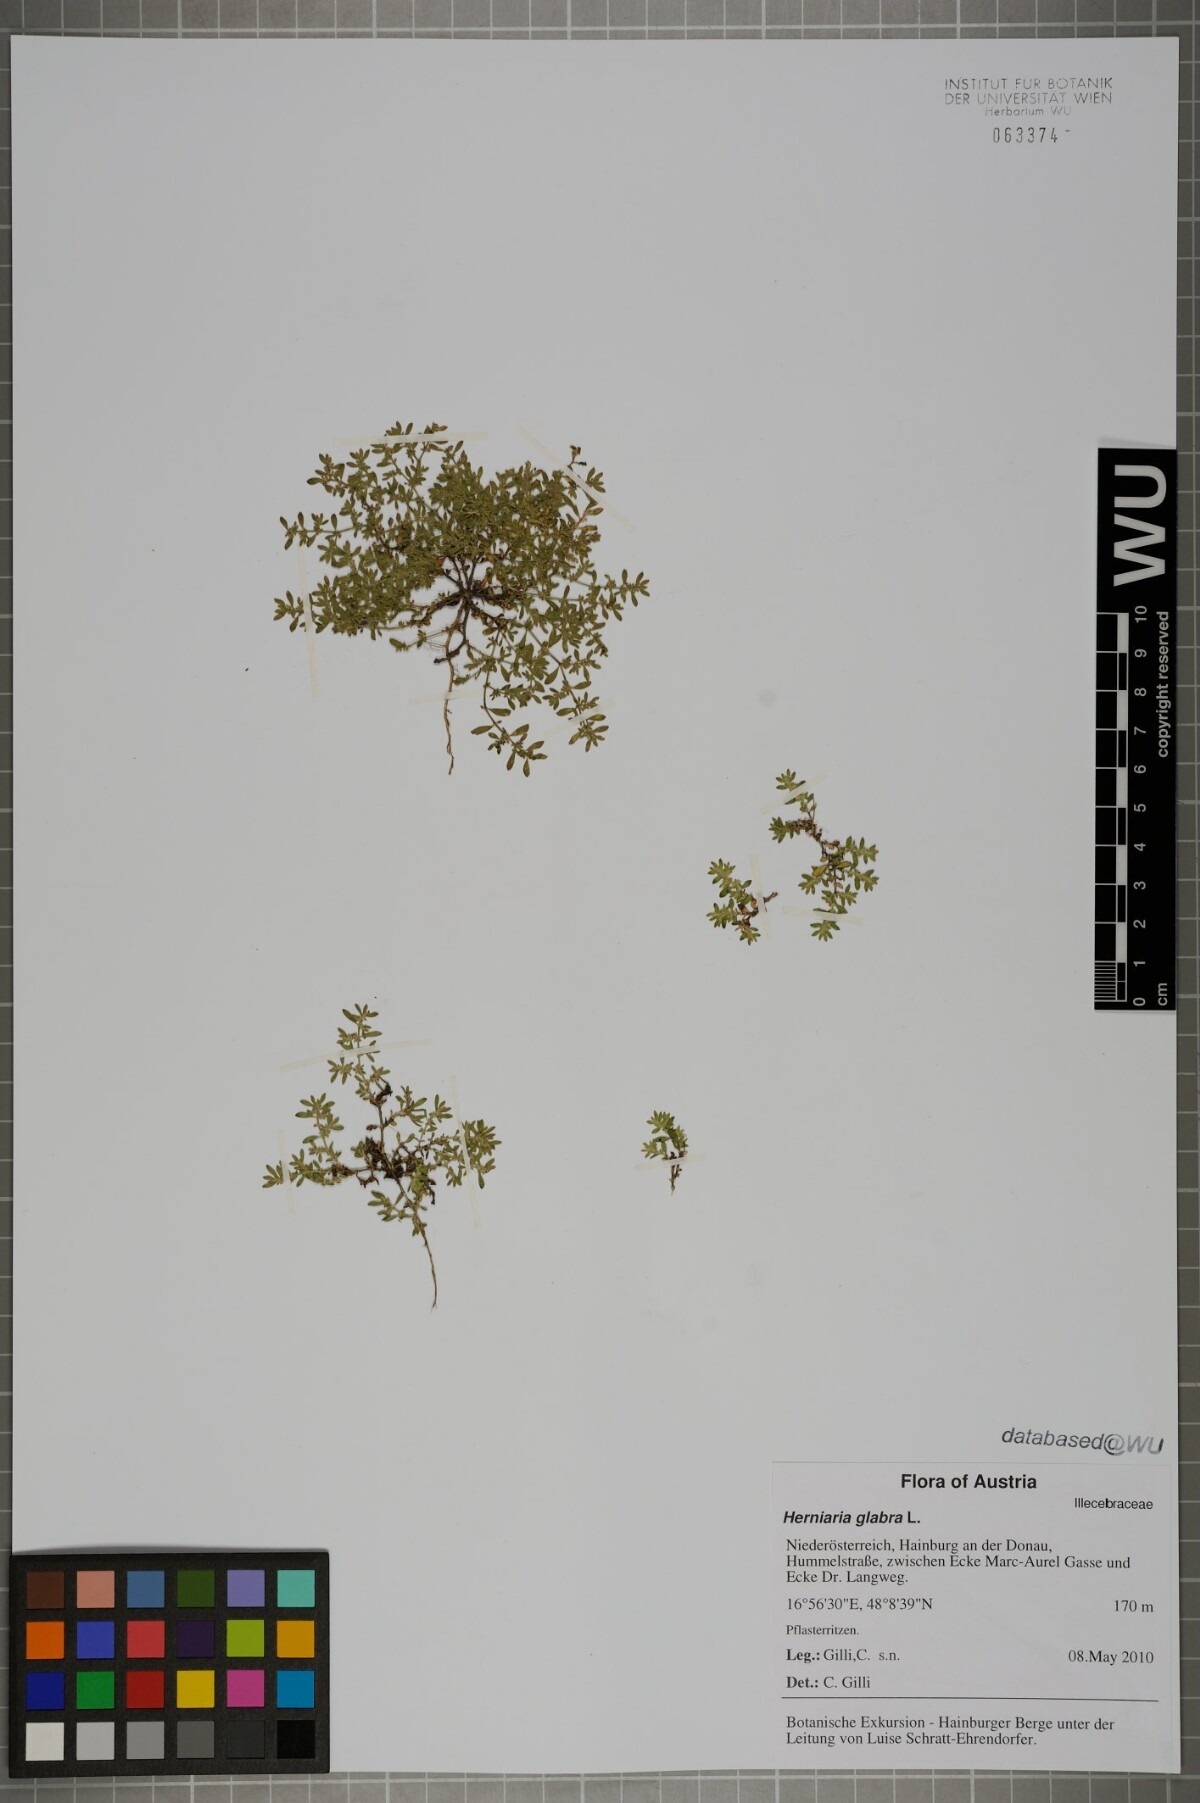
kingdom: Plantae
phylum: Tracheophyta
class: Magnoliopsida
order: Caryophyllales
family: Caryophyllaceae
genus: Herniaria
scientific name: Herniaria glabra
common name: Smooth rupturewort
